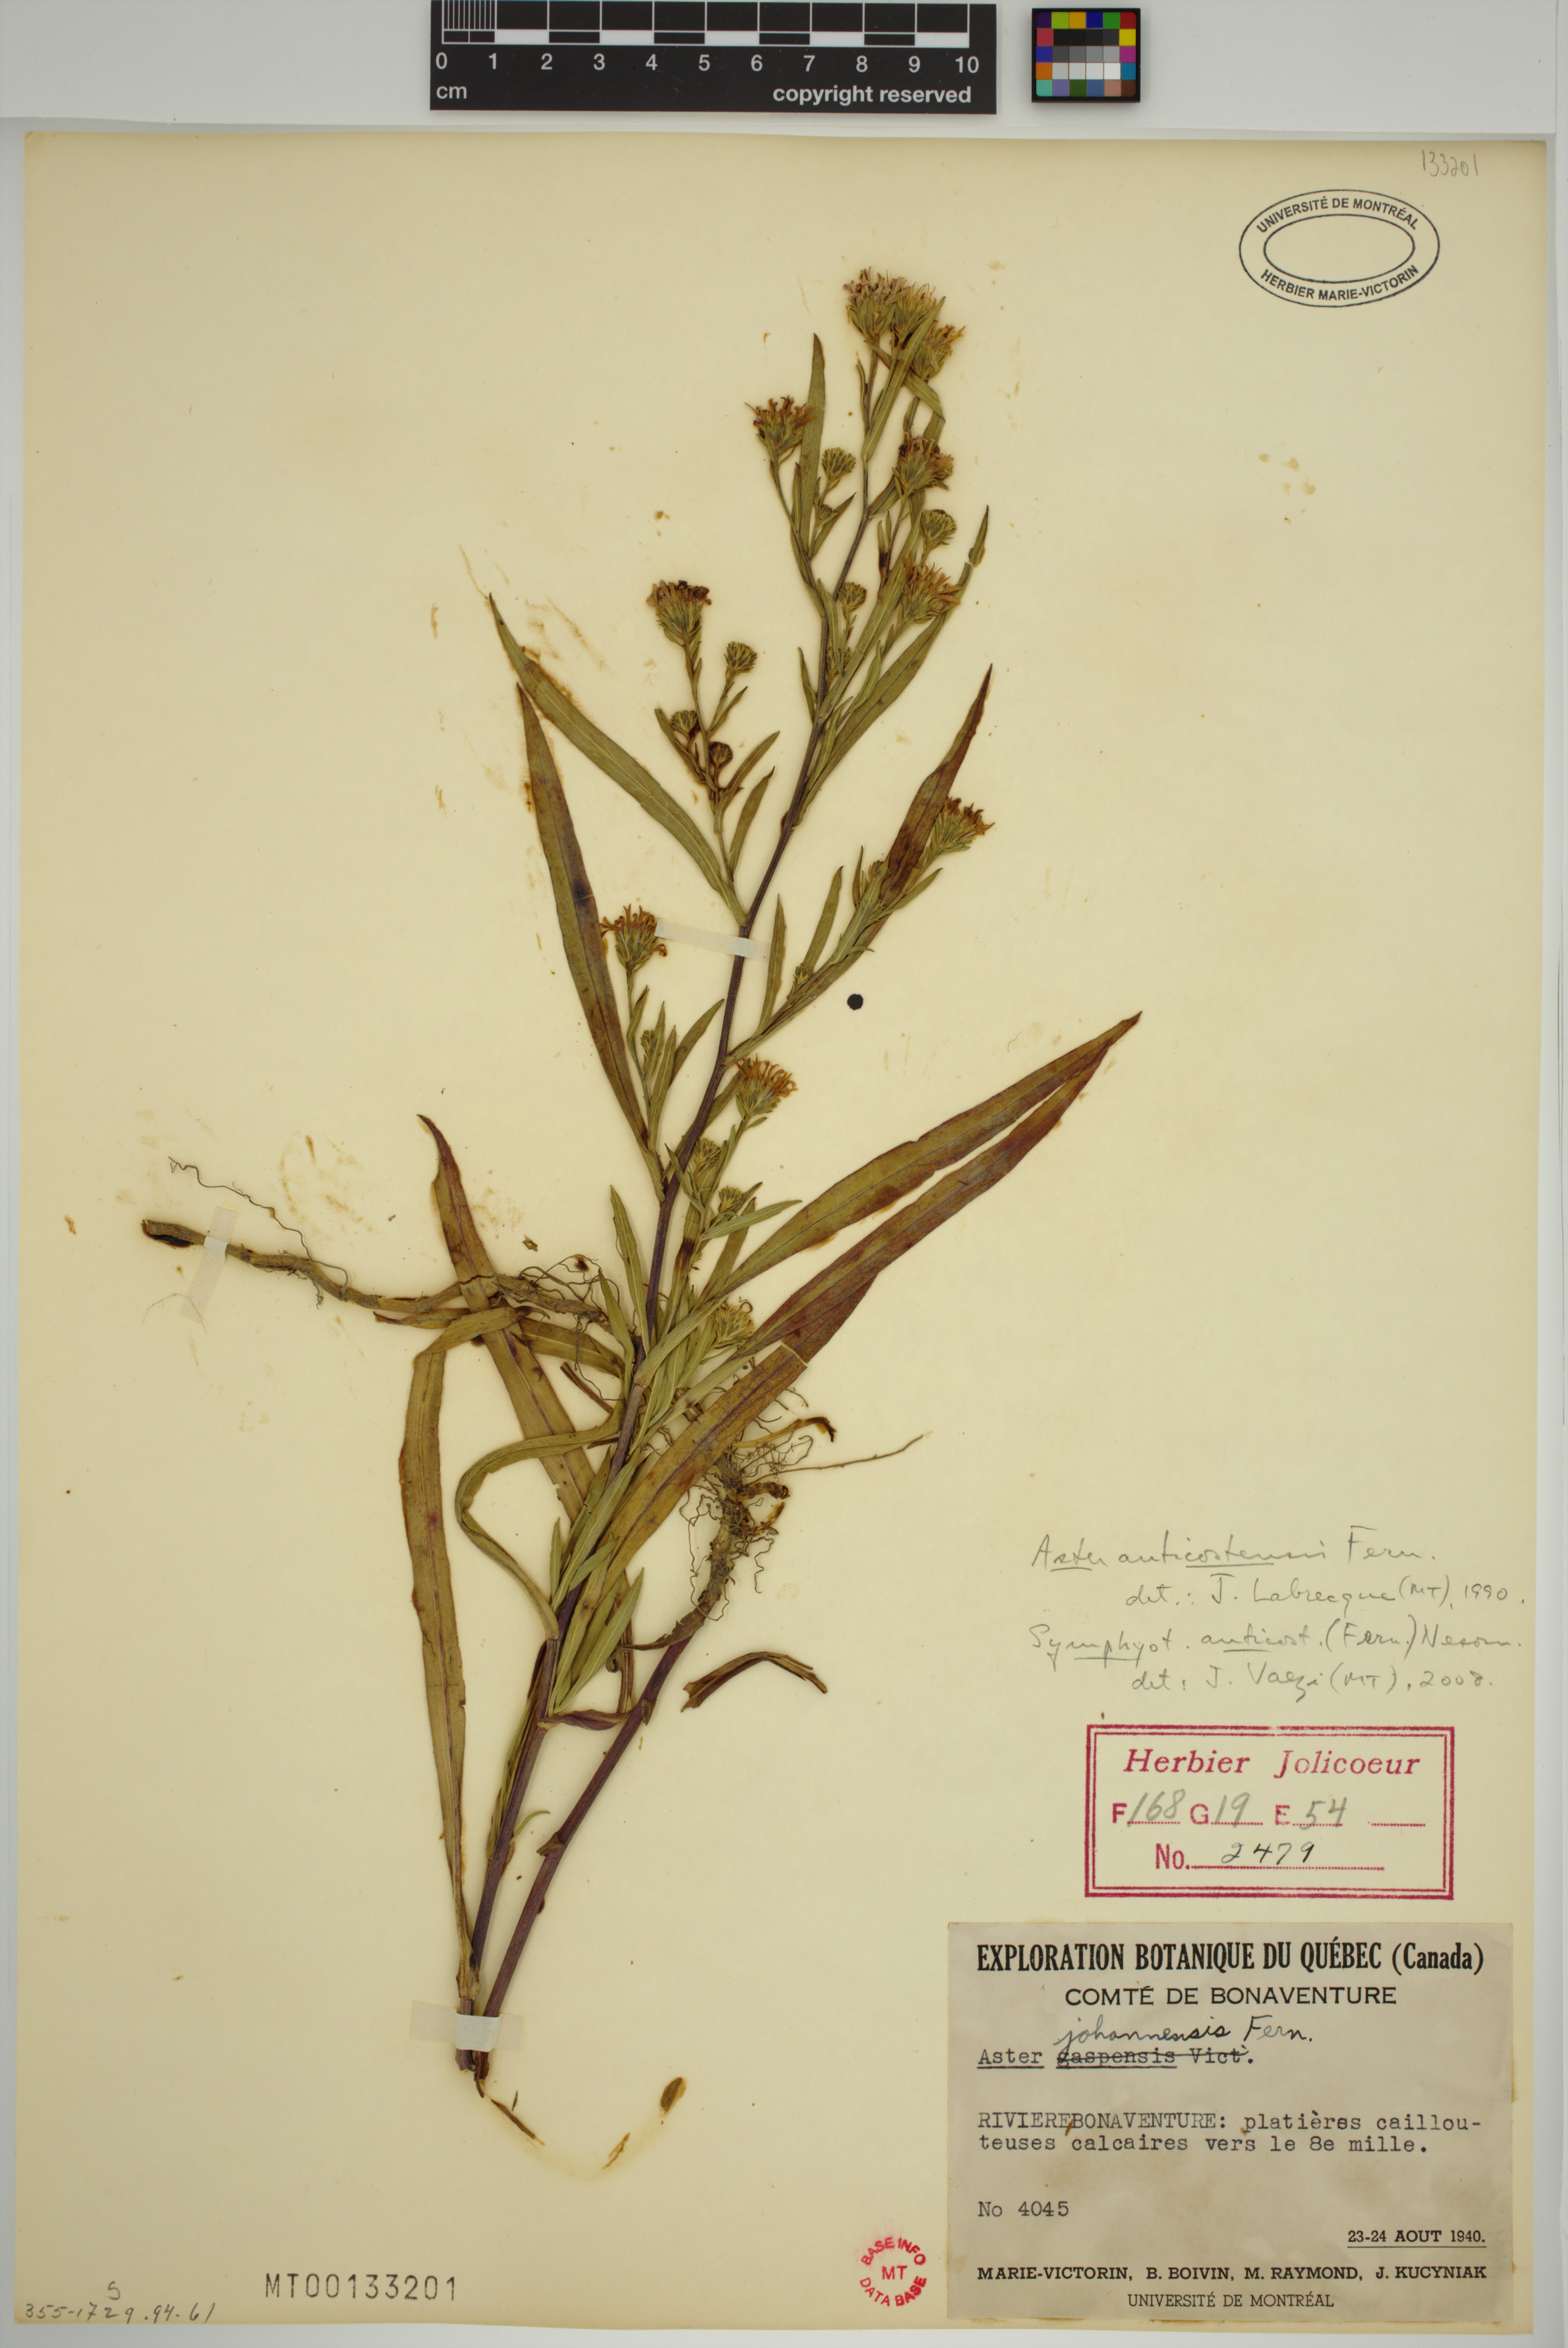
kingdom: Plantae
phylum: Tracheophyta
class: Magnoliopsida
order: Asterales
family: Asteraceae
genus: Symphyotrichum
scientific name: Symphyotrichum anticostense
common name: Anticosti island aster
